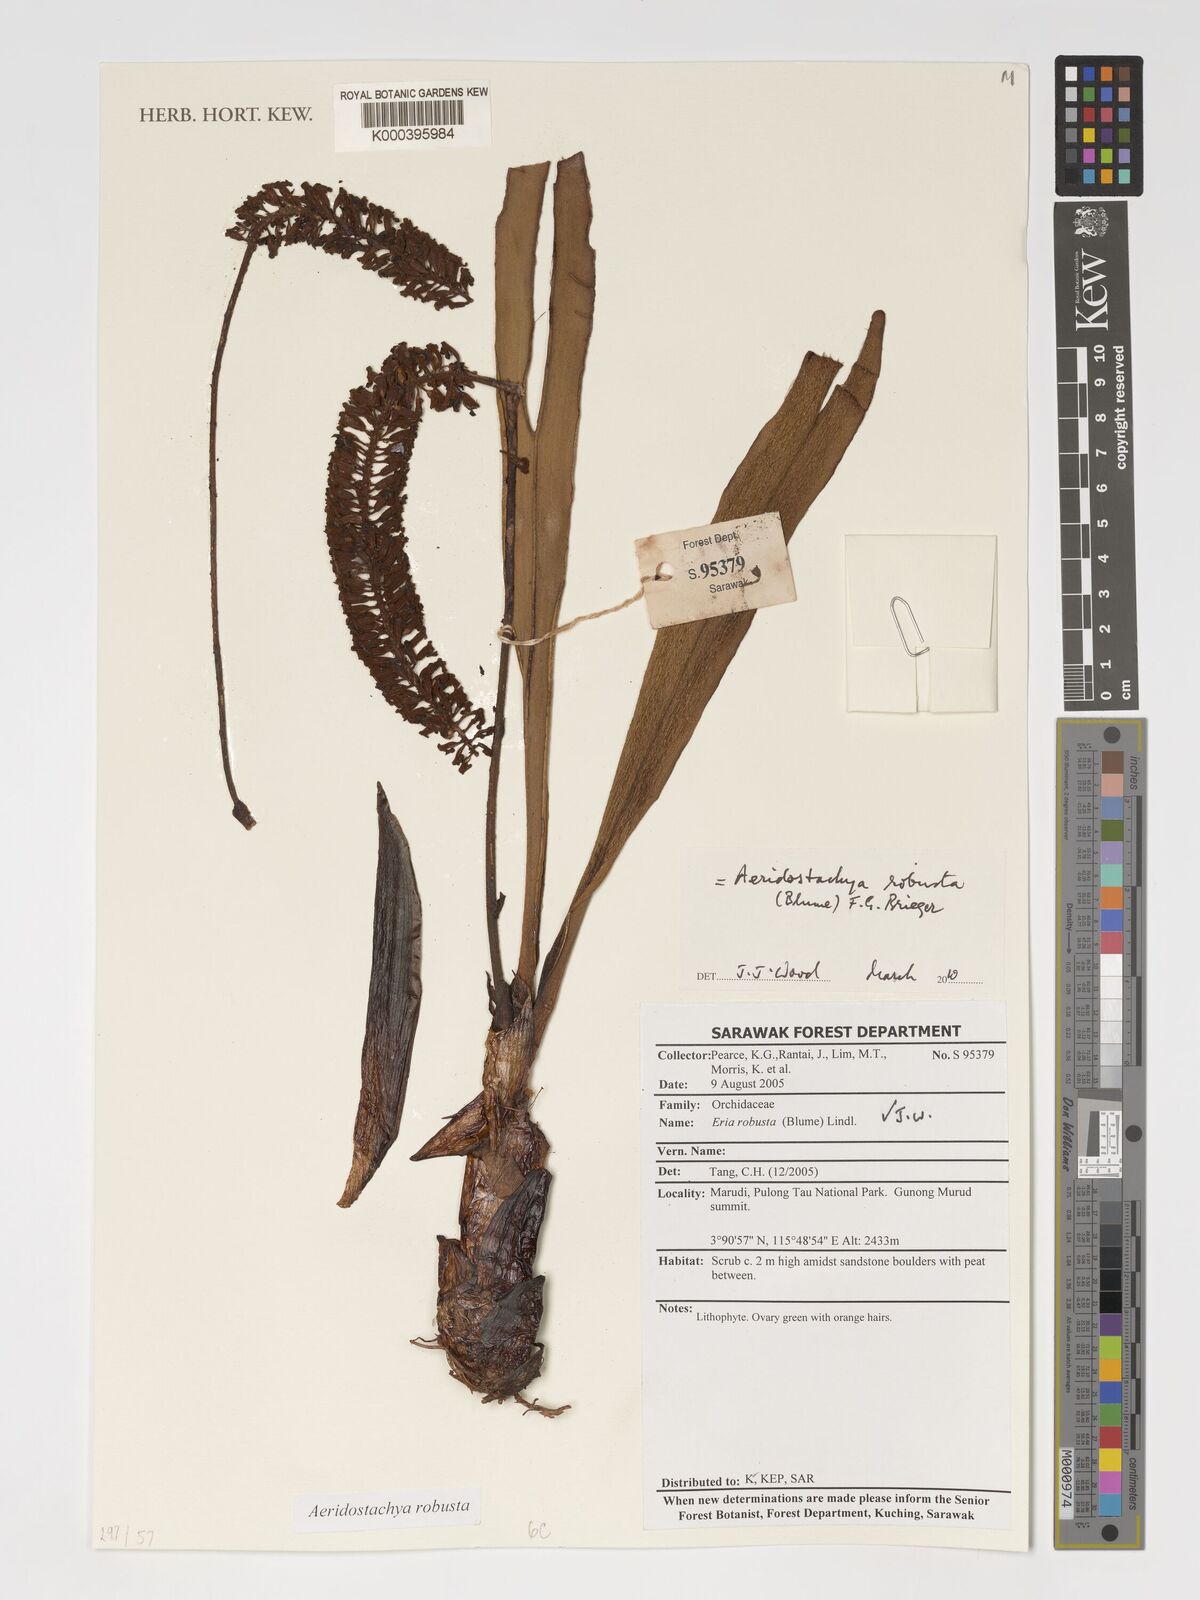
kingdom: Plantae
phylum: Tracheophyta
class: Liliopsida
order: Asparagales
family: Orchidaceae
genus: Aeridostachya
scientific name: Aeridostachya robusta
